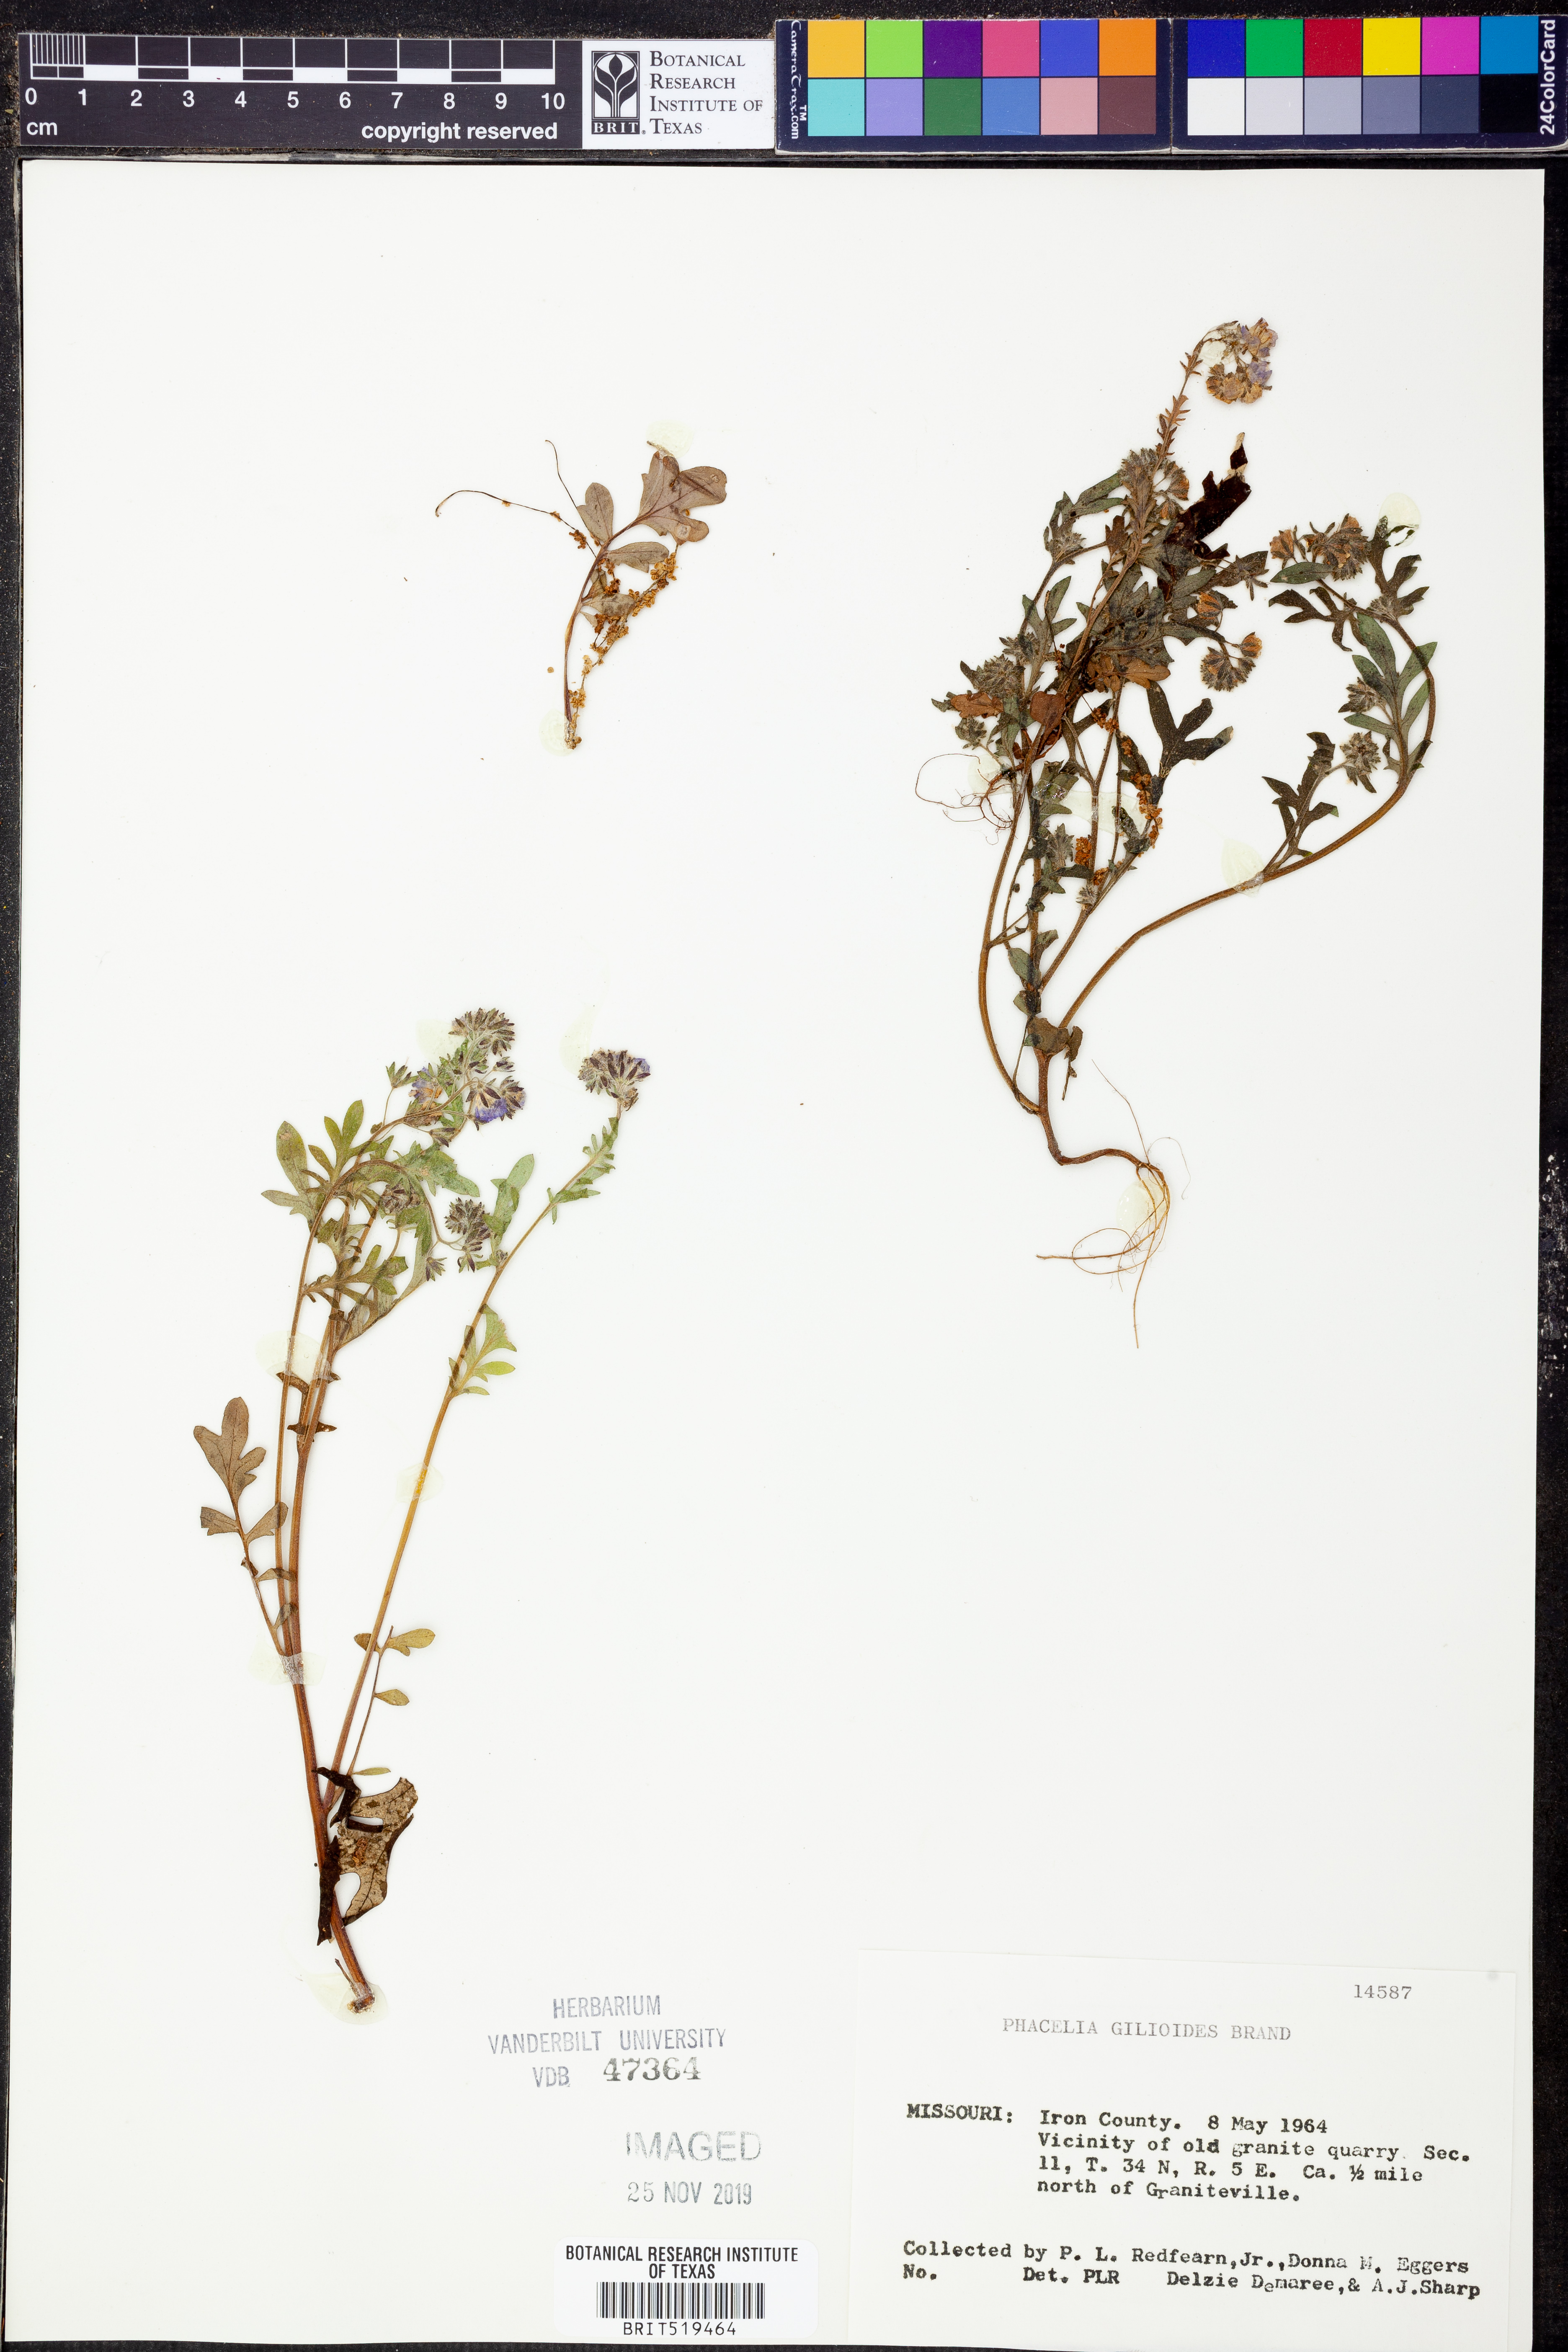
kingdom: Plantae
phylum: Tracheophyta
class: Magnoliopsida
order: Boraginales
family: Hydrophyllaceae
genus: Phacelia
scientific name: Phacelia gilioides
